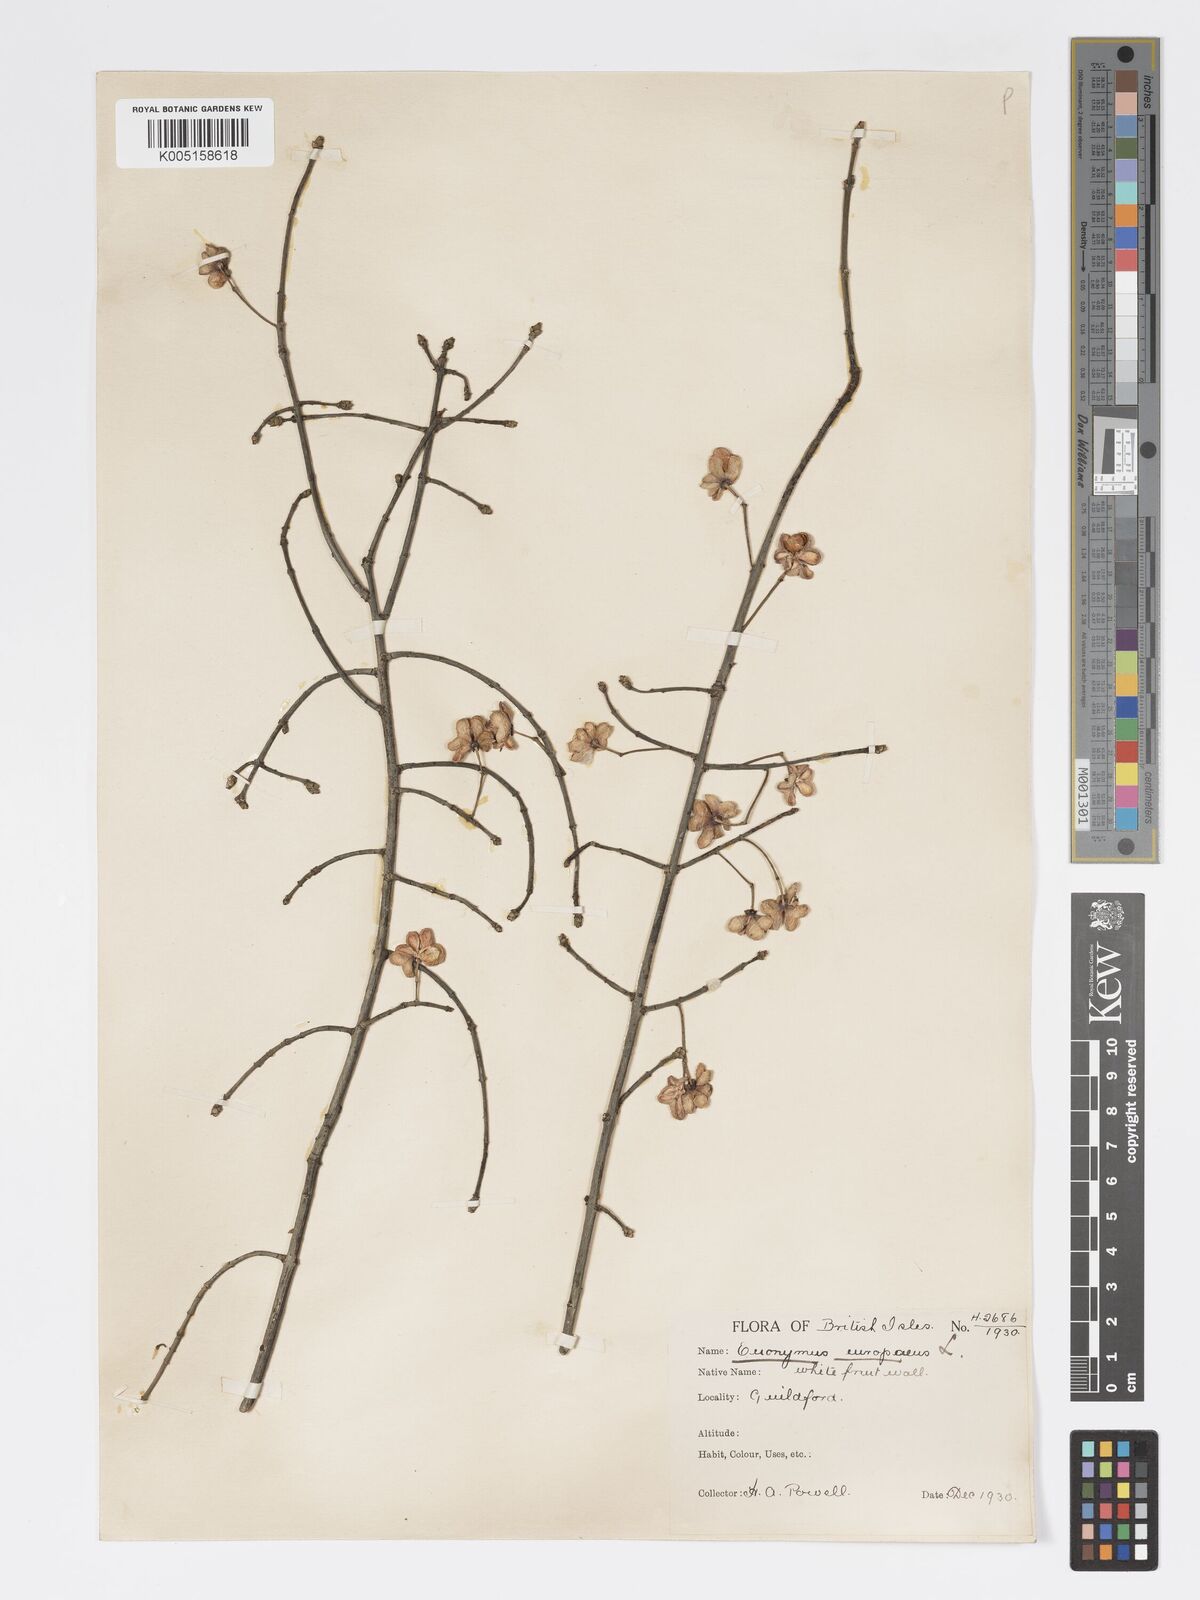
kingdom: Plantae
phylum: Tracheophyta
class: Magnoliopsida
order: Celastrales
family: Celastraceae
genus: Euonymus
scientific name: Euonymus europaeus
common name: Spindle
